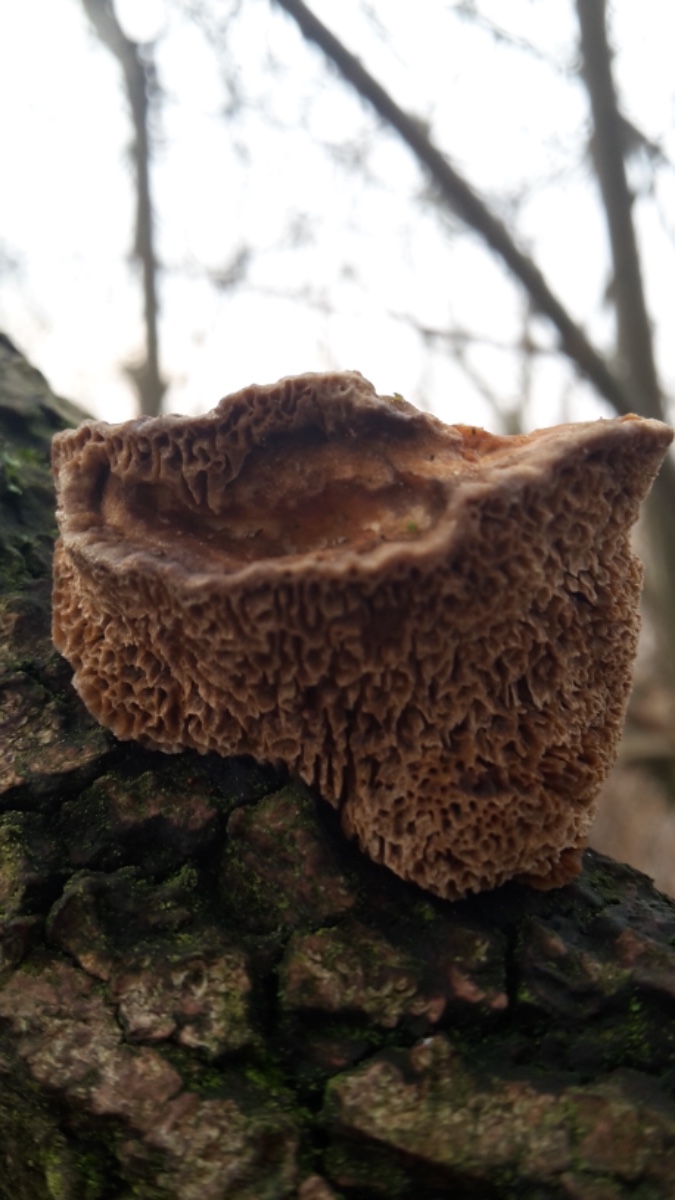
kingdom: Fungi
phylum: Basidiomycota
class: Agaricomycetes
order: Polyporales
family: Polyporaceae
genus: Daedaleopsis
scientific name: Daedaleopsis confragosa
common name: rødmende læderporesvamp
